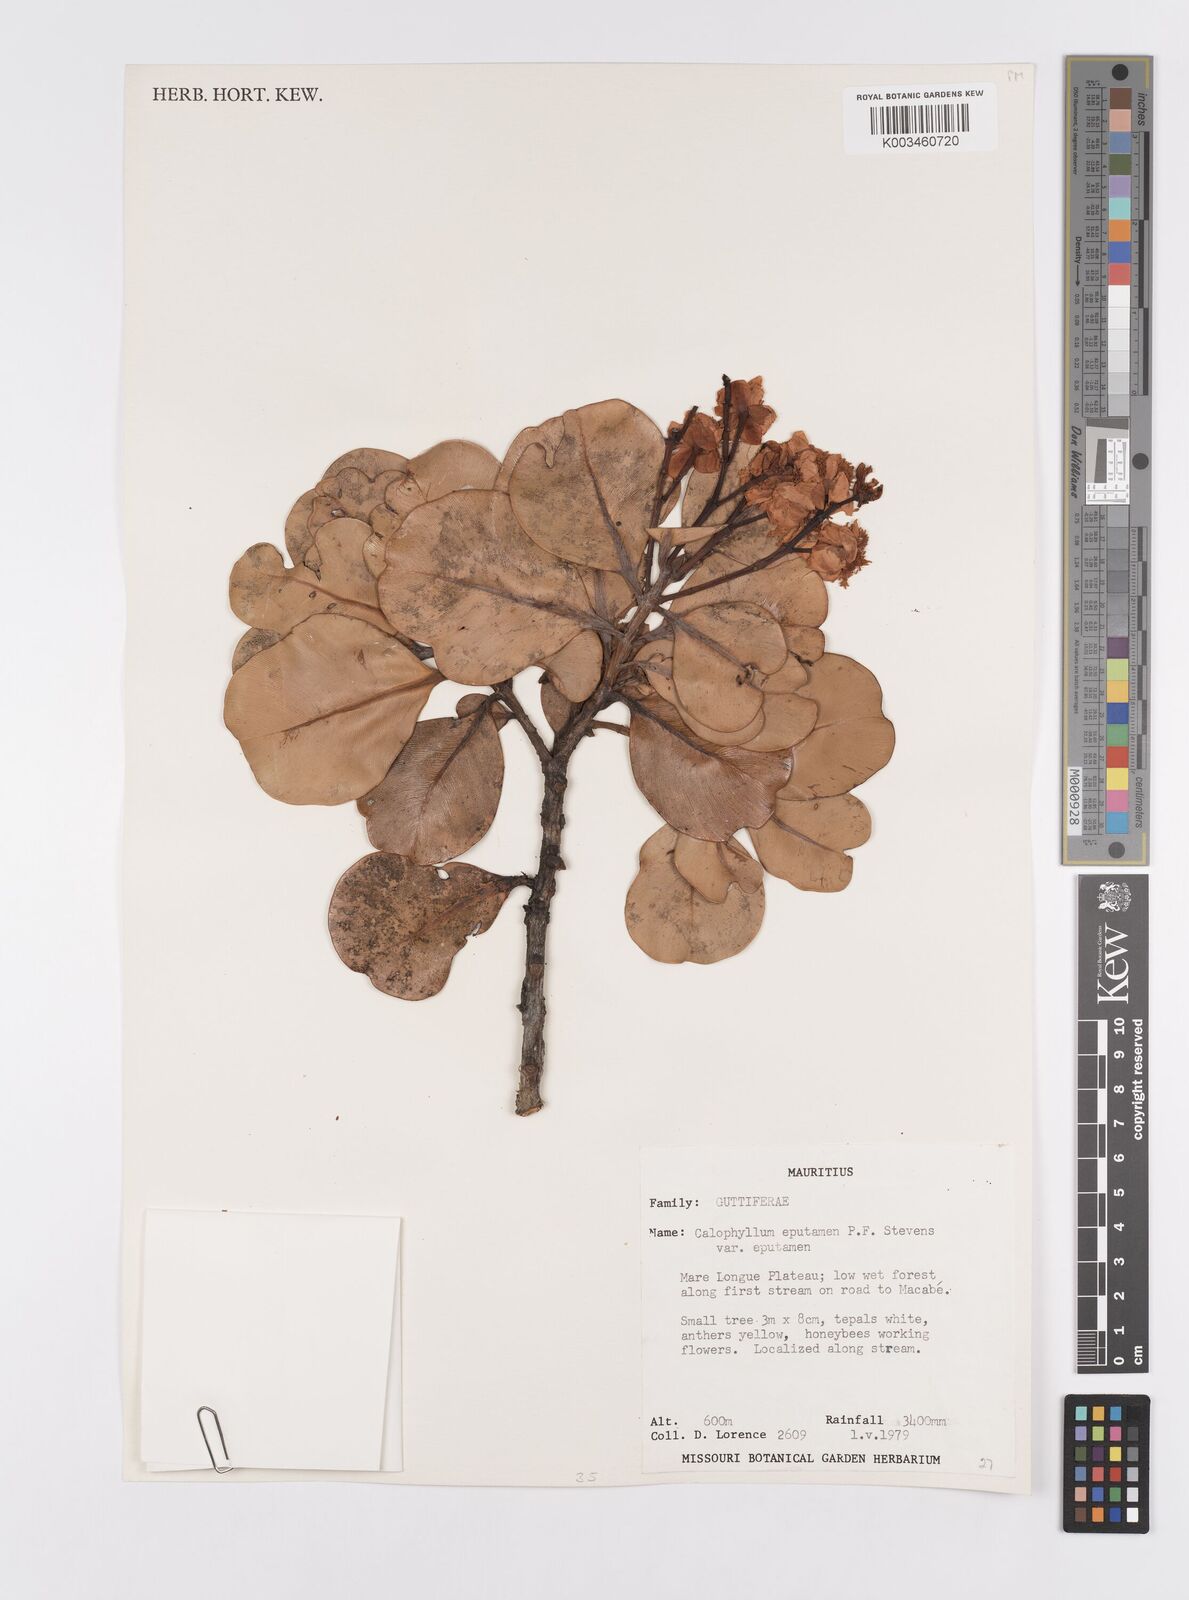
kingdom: Plantae
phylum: Tracheophyta
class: Magnoliopsida
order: Malpighiales
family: Calophyllaceae
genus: Calophyllum
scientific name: Calophyllum eputamen
